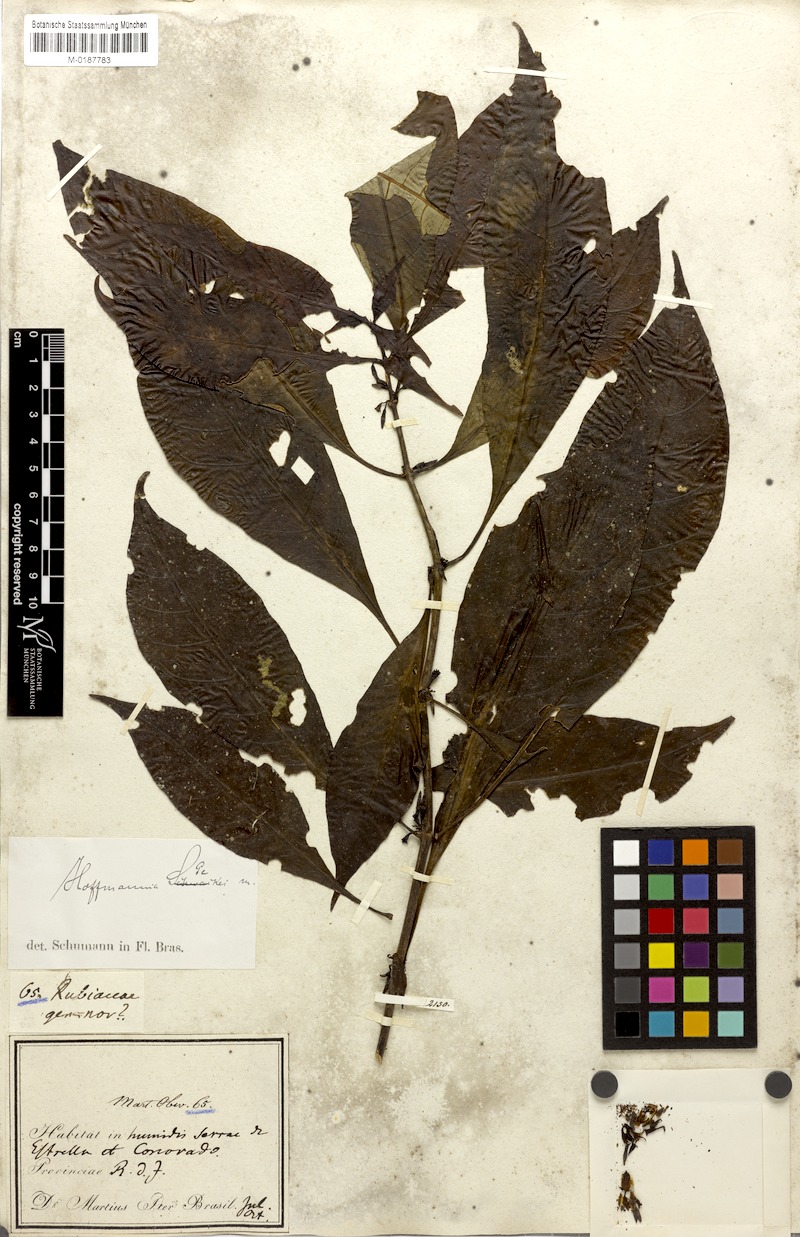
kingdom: Plantae
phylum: Tracheophyta
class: Magnoliopsida
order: Gentianales
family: Rubiaceae
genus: Hoffmannia
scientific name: Hoffmannia peckii
